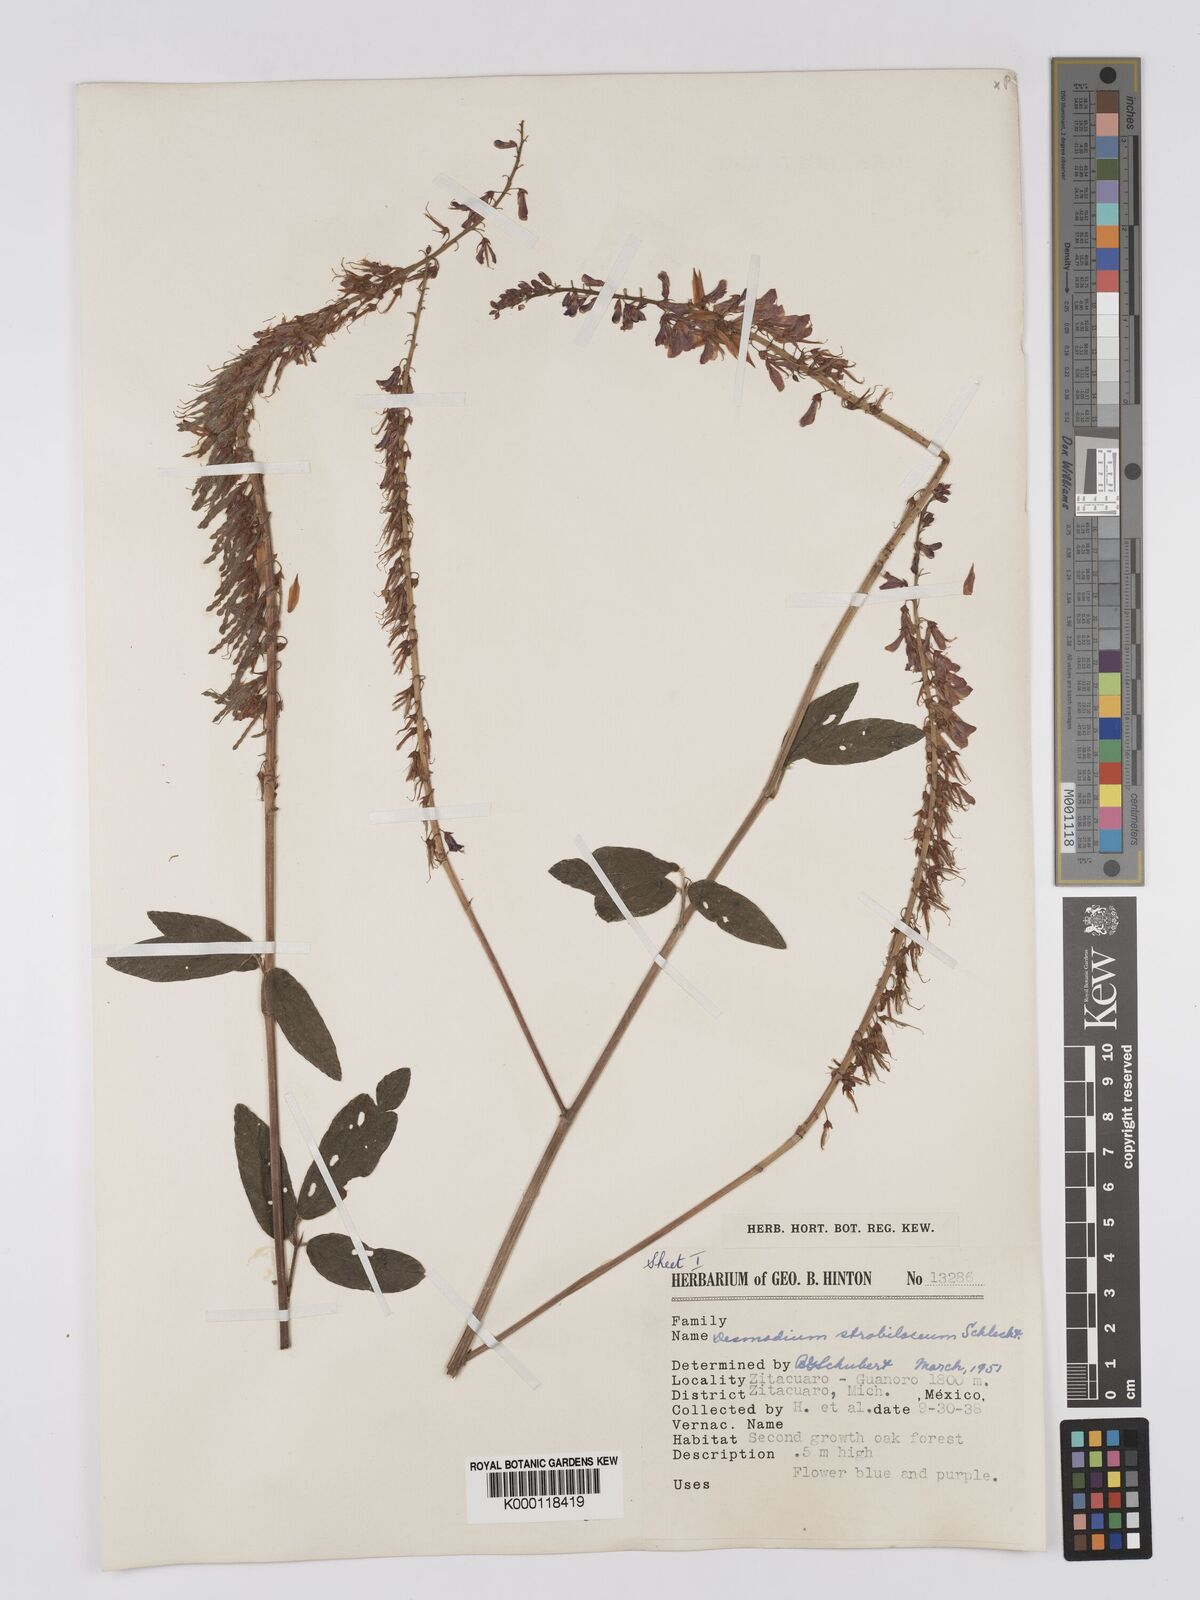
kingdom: Plantae
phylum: Tracheophyta
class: Magnoliopsida
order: Fabales
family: Fabaceae
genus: Desmodium
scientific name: Desmodium sericophyllum
